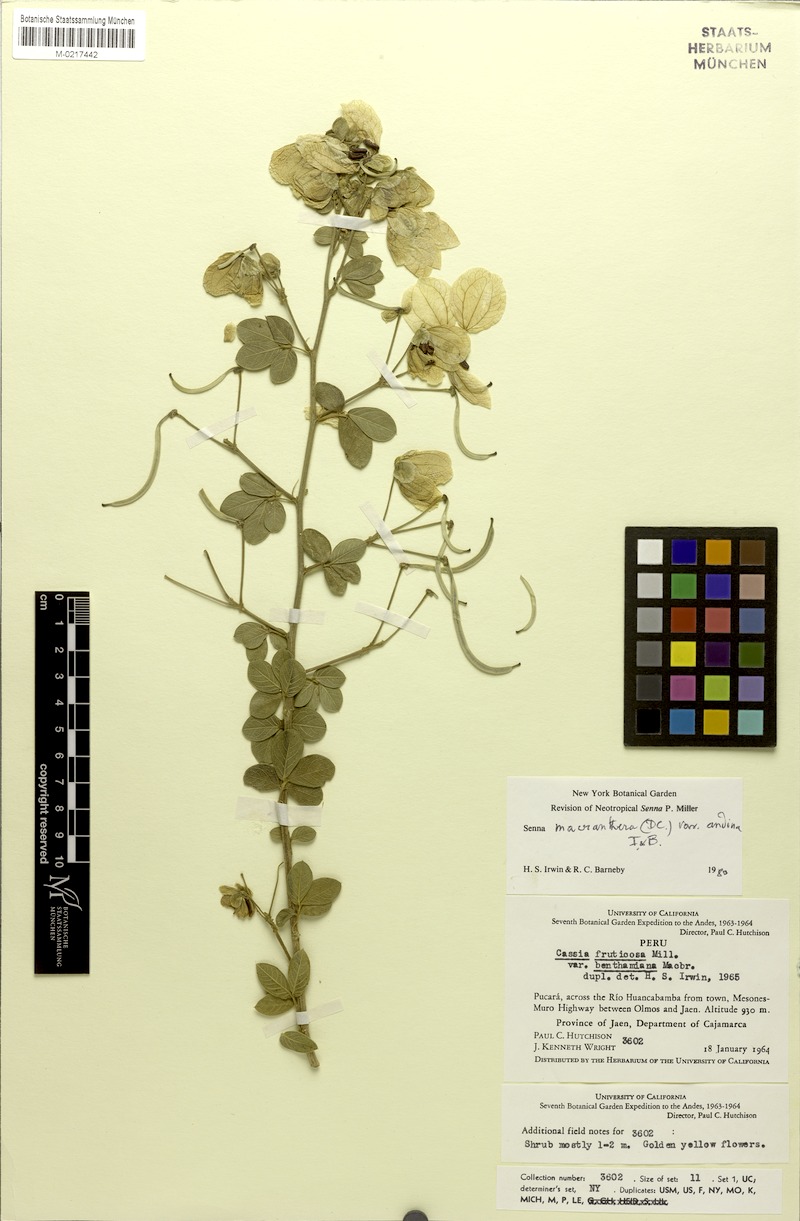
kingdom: Plantae
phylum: Tracheophyta
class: Magnoliopsida
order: Fabales
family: Fabaceae
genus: Senna
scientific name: Senna macranthera
